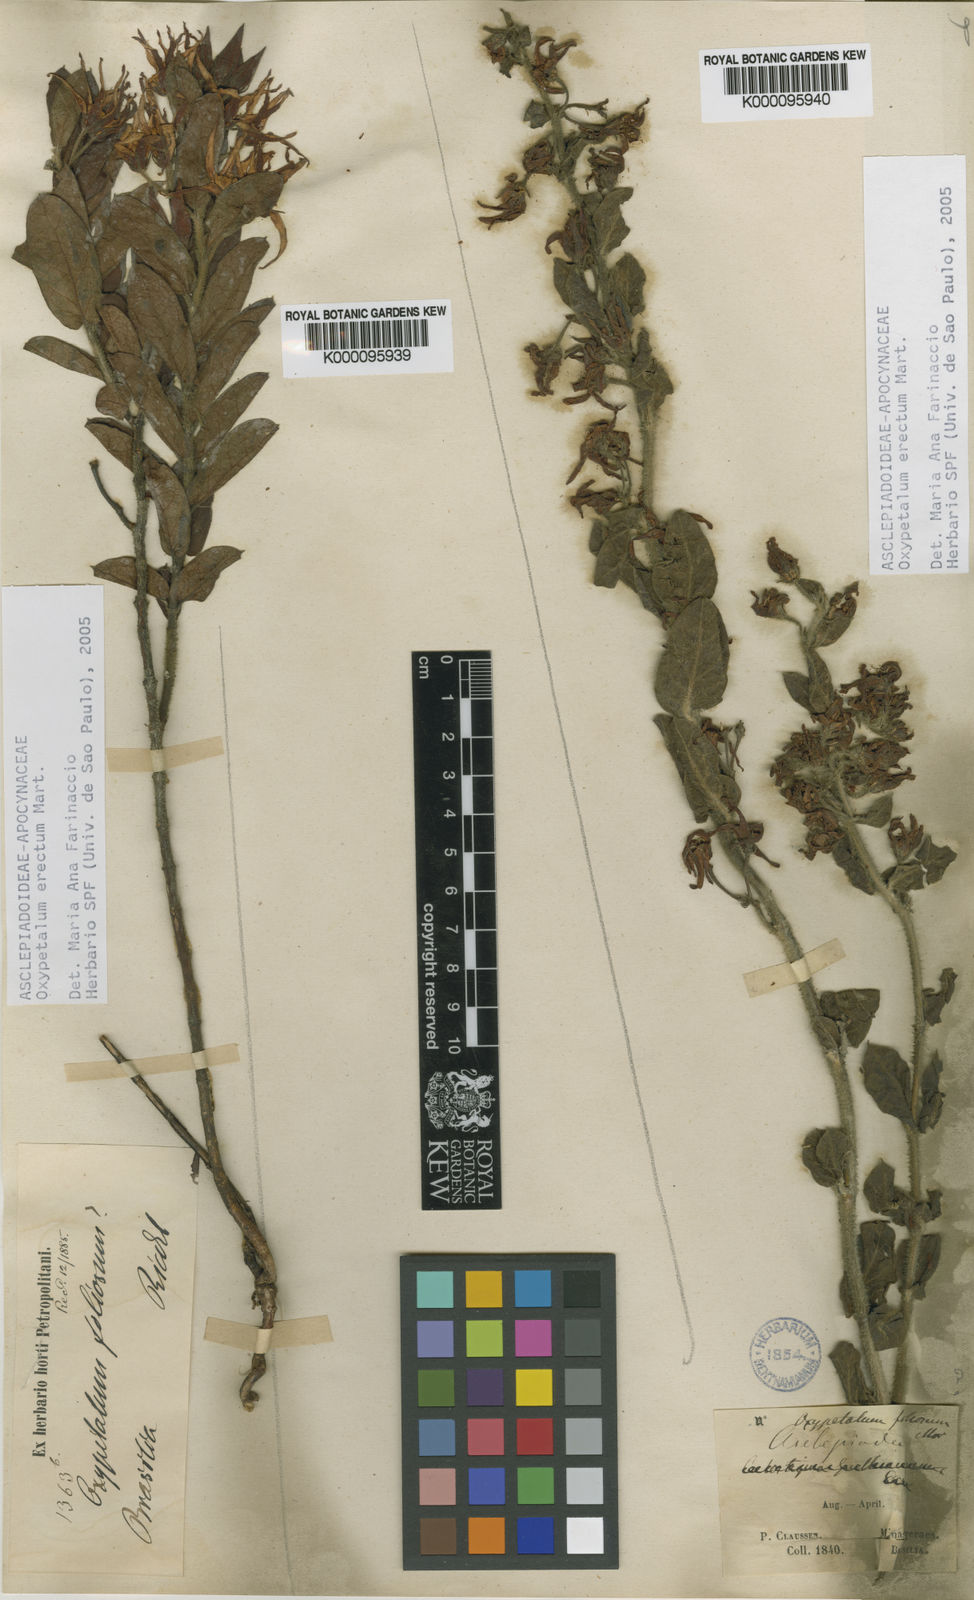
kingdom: Plantae
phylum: Tracheophyta
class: Magnoliopsida
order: Gentianales
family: Apocynaceae
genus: Oxypetalum
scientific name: Oxypetalum erectum
